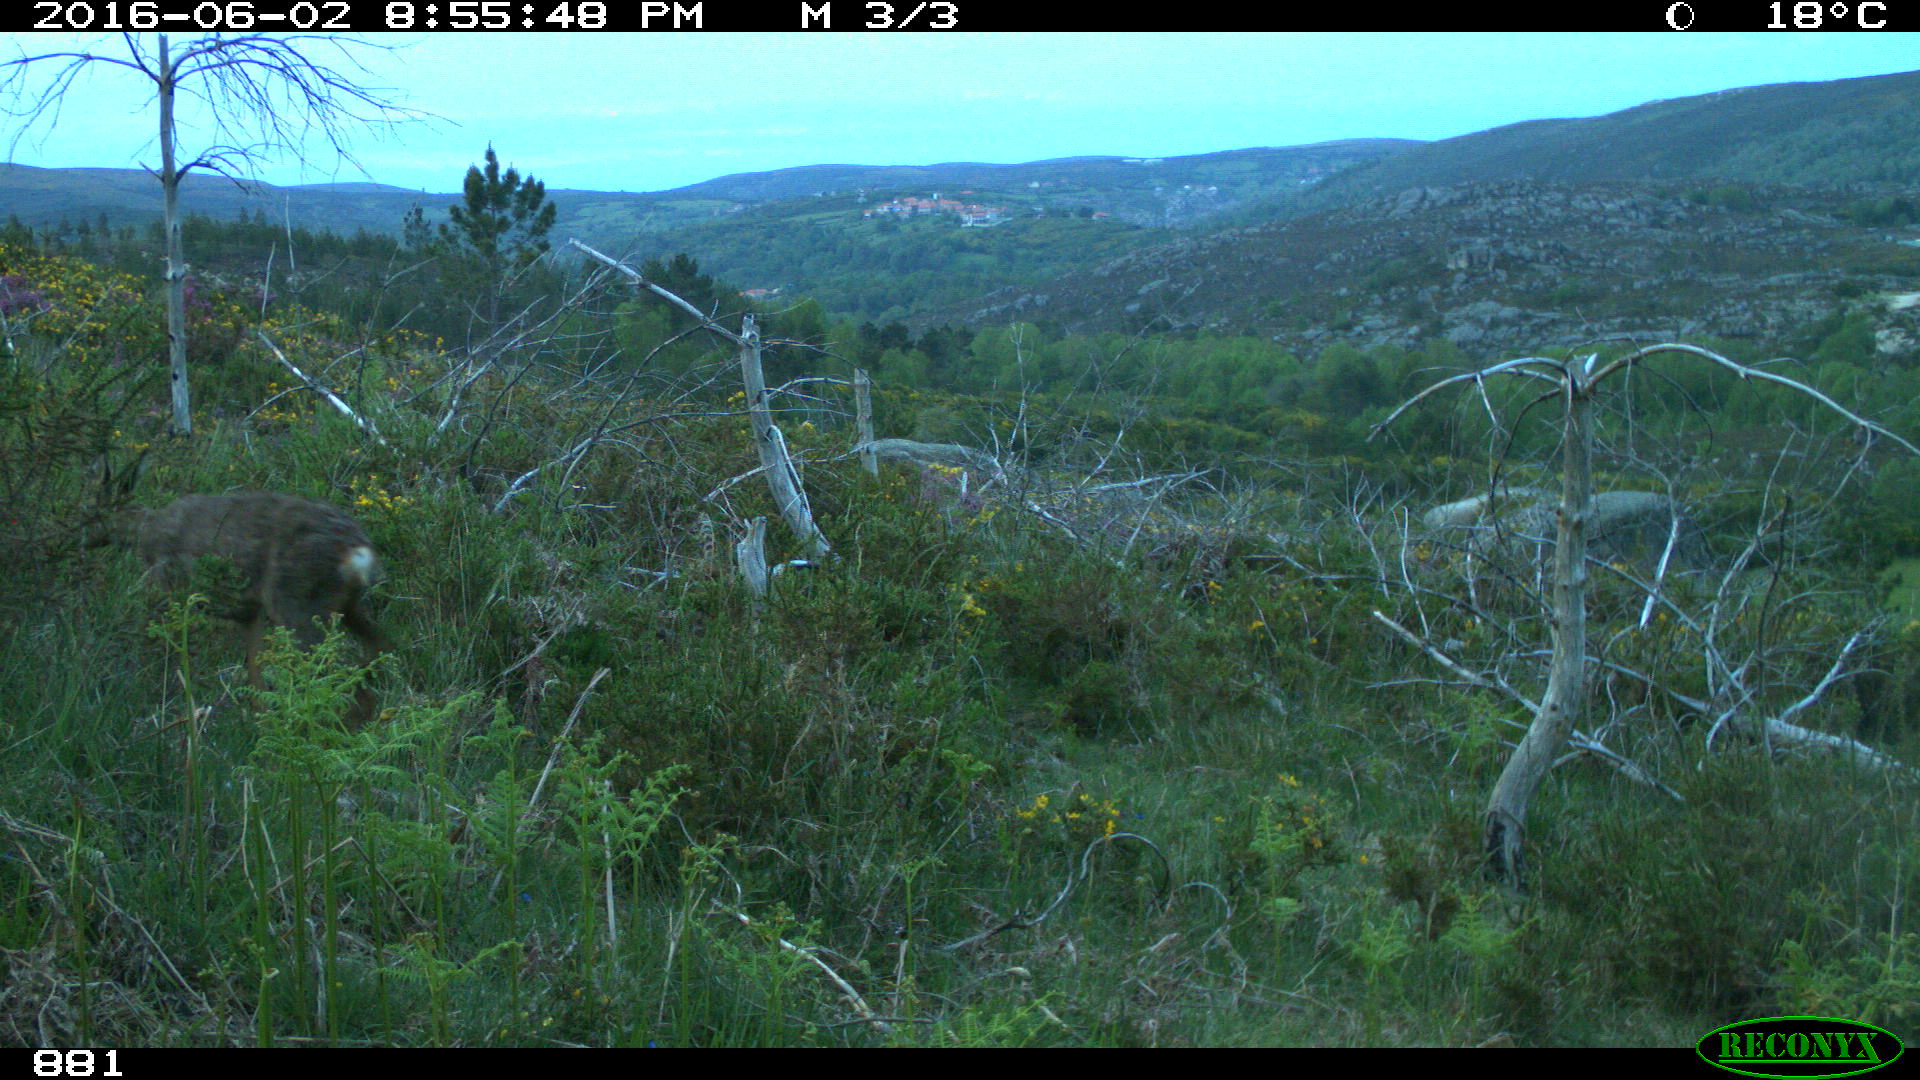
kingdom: Animalia
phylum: Chordata
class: Mammalia
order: Artiodactyla
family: Cervidae
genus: Capreolus
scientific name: Capreolus capreolus
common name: Western roe deer
